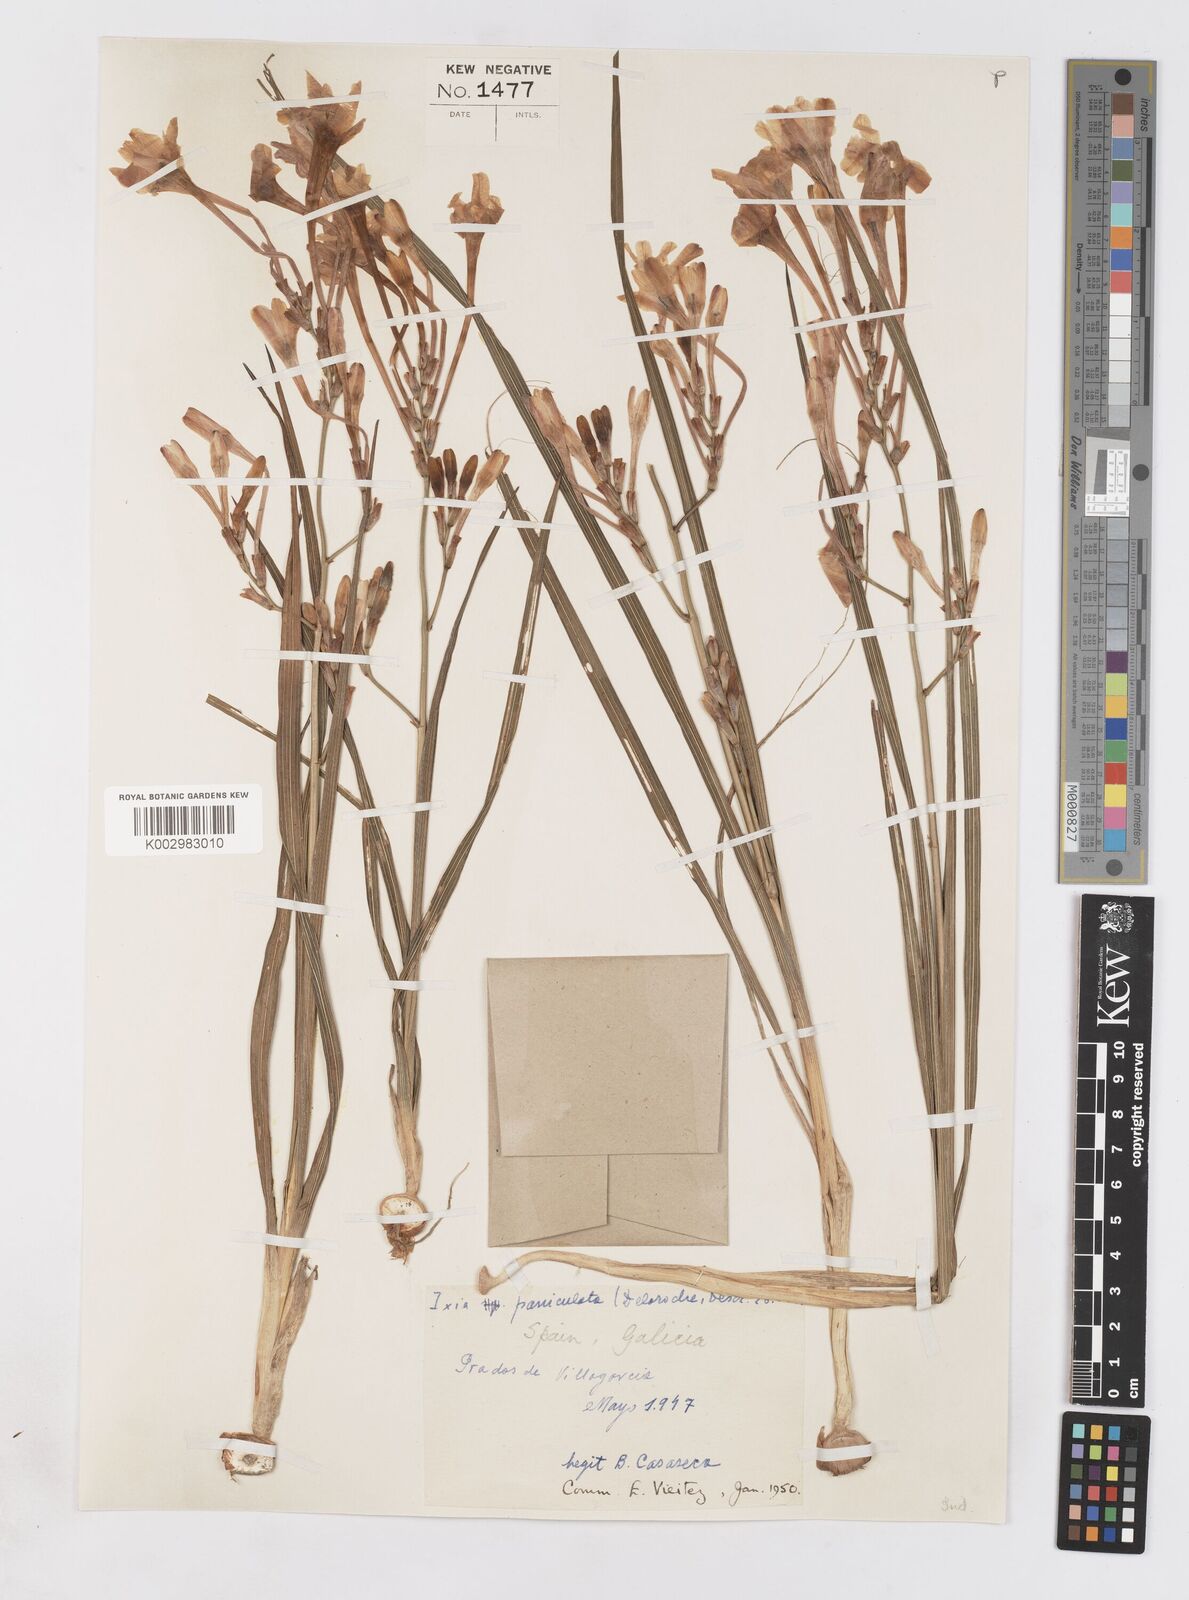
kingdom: Plantae
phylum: Tracheophyta
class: Liliopsida
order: Asparagales
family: Iridaceae
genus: Ixia
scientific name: Ixia paniculata
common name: Tubular corn-lily
